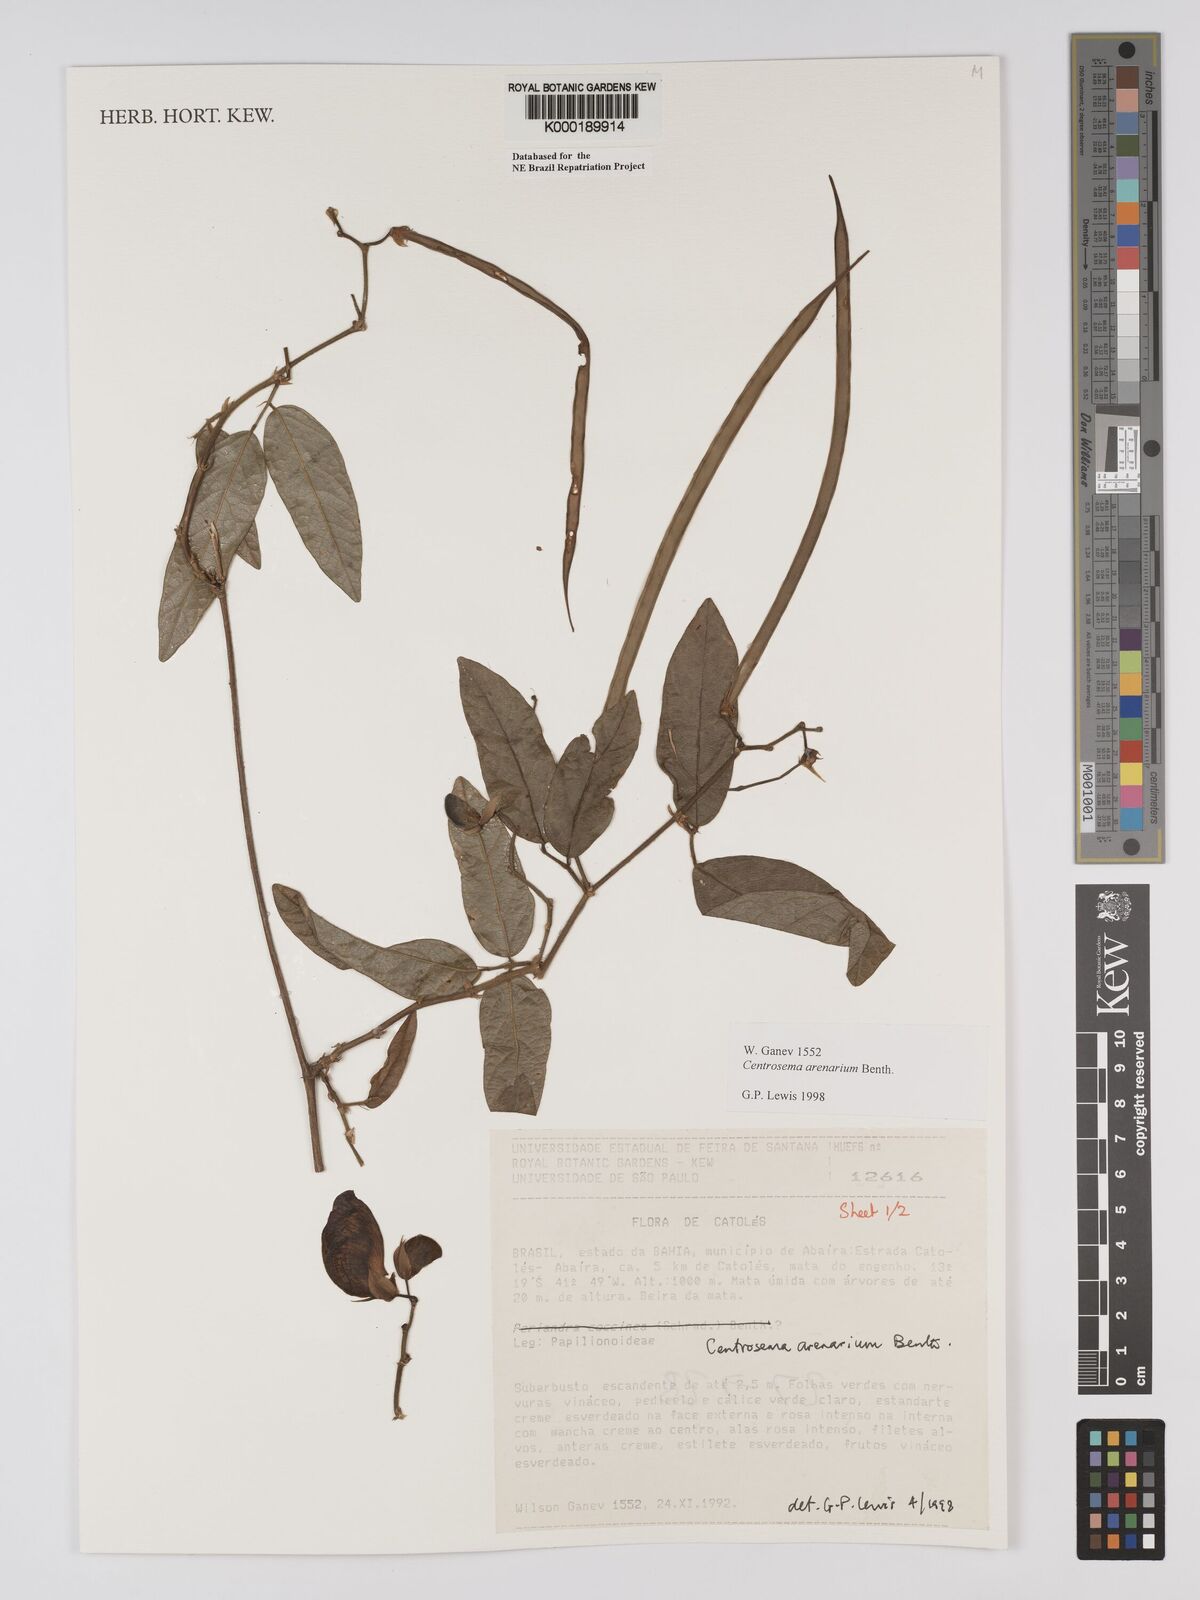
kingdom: Plantae
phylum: Tracheophyta
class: Magnoliopsida
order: Fabales
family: Fabaceae
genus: Centrosema
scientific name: Centrosema arenarium
